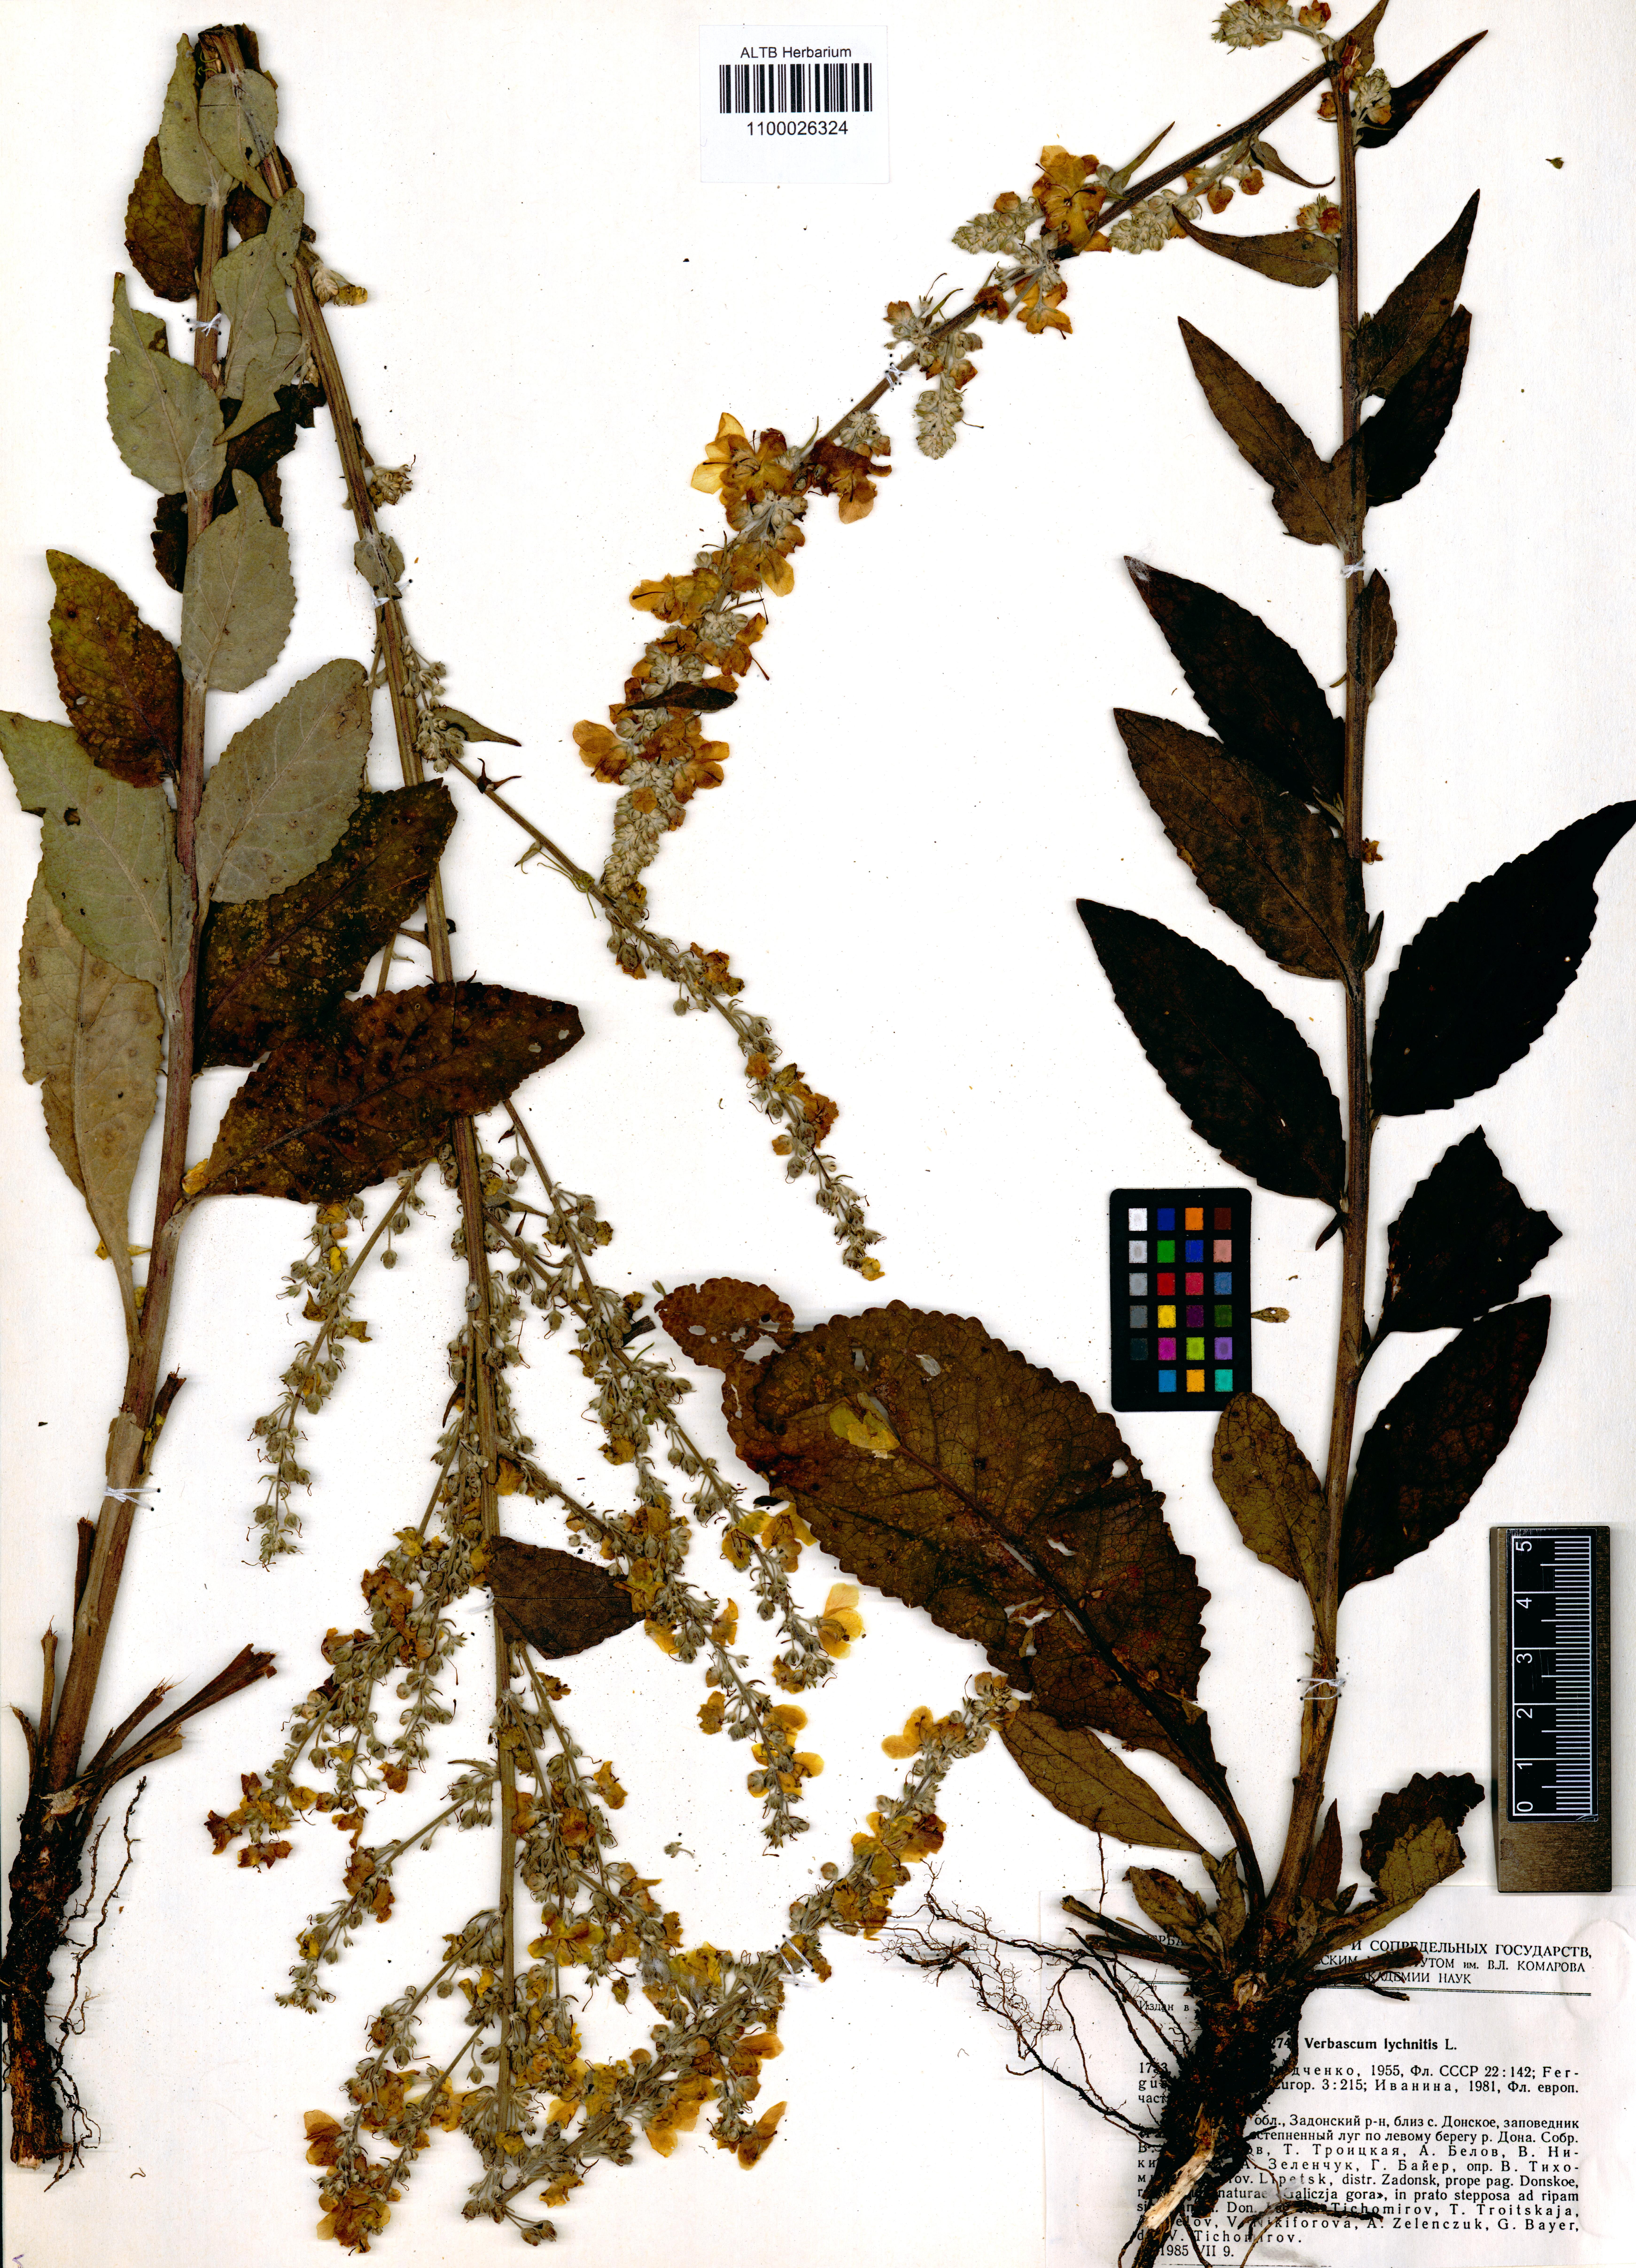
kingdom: Plantae
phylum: Tracheophyta
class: Magnoliopsida
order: Lamiales
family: Scrophulariaceae
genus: Verbascum
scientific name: Verbascum lychnitis
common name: White mullein
